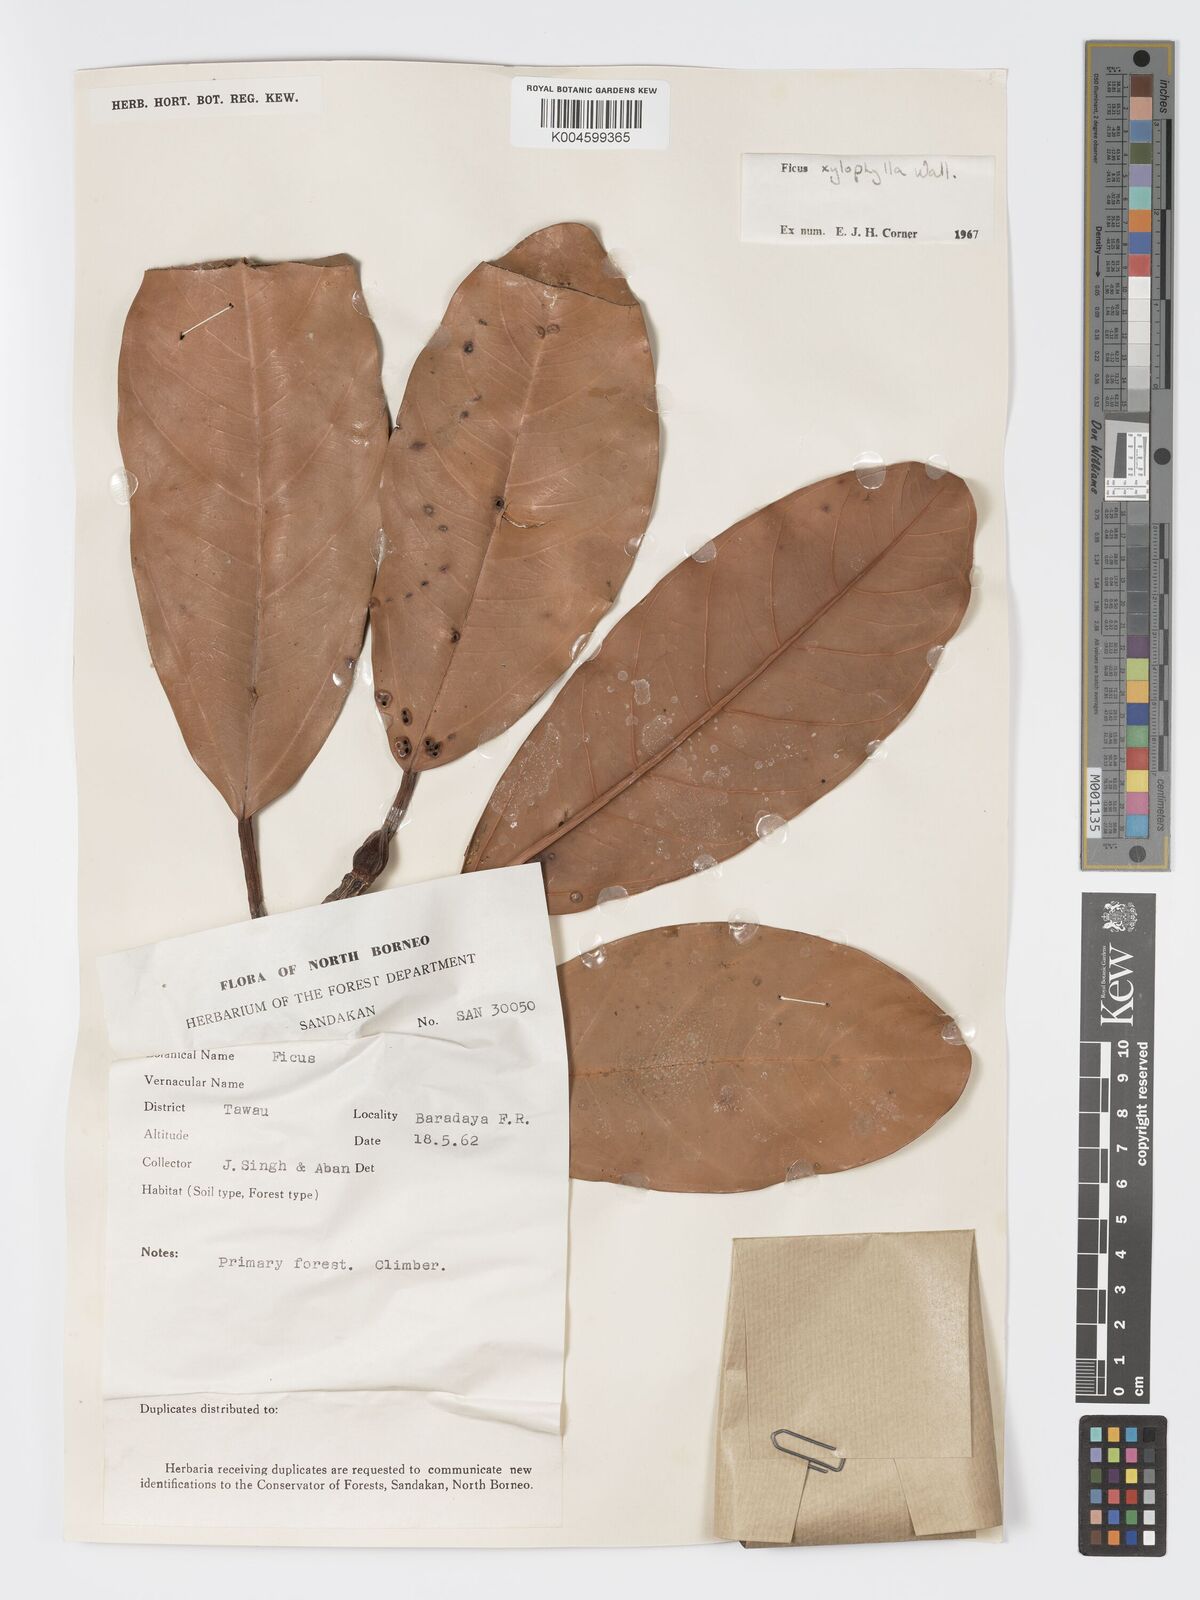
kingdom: Plantae
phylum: Tracheophyta
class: Magnoliopsida
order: Rosales
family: Moraceae
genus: Ficus
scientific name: Ficus xylophylla
